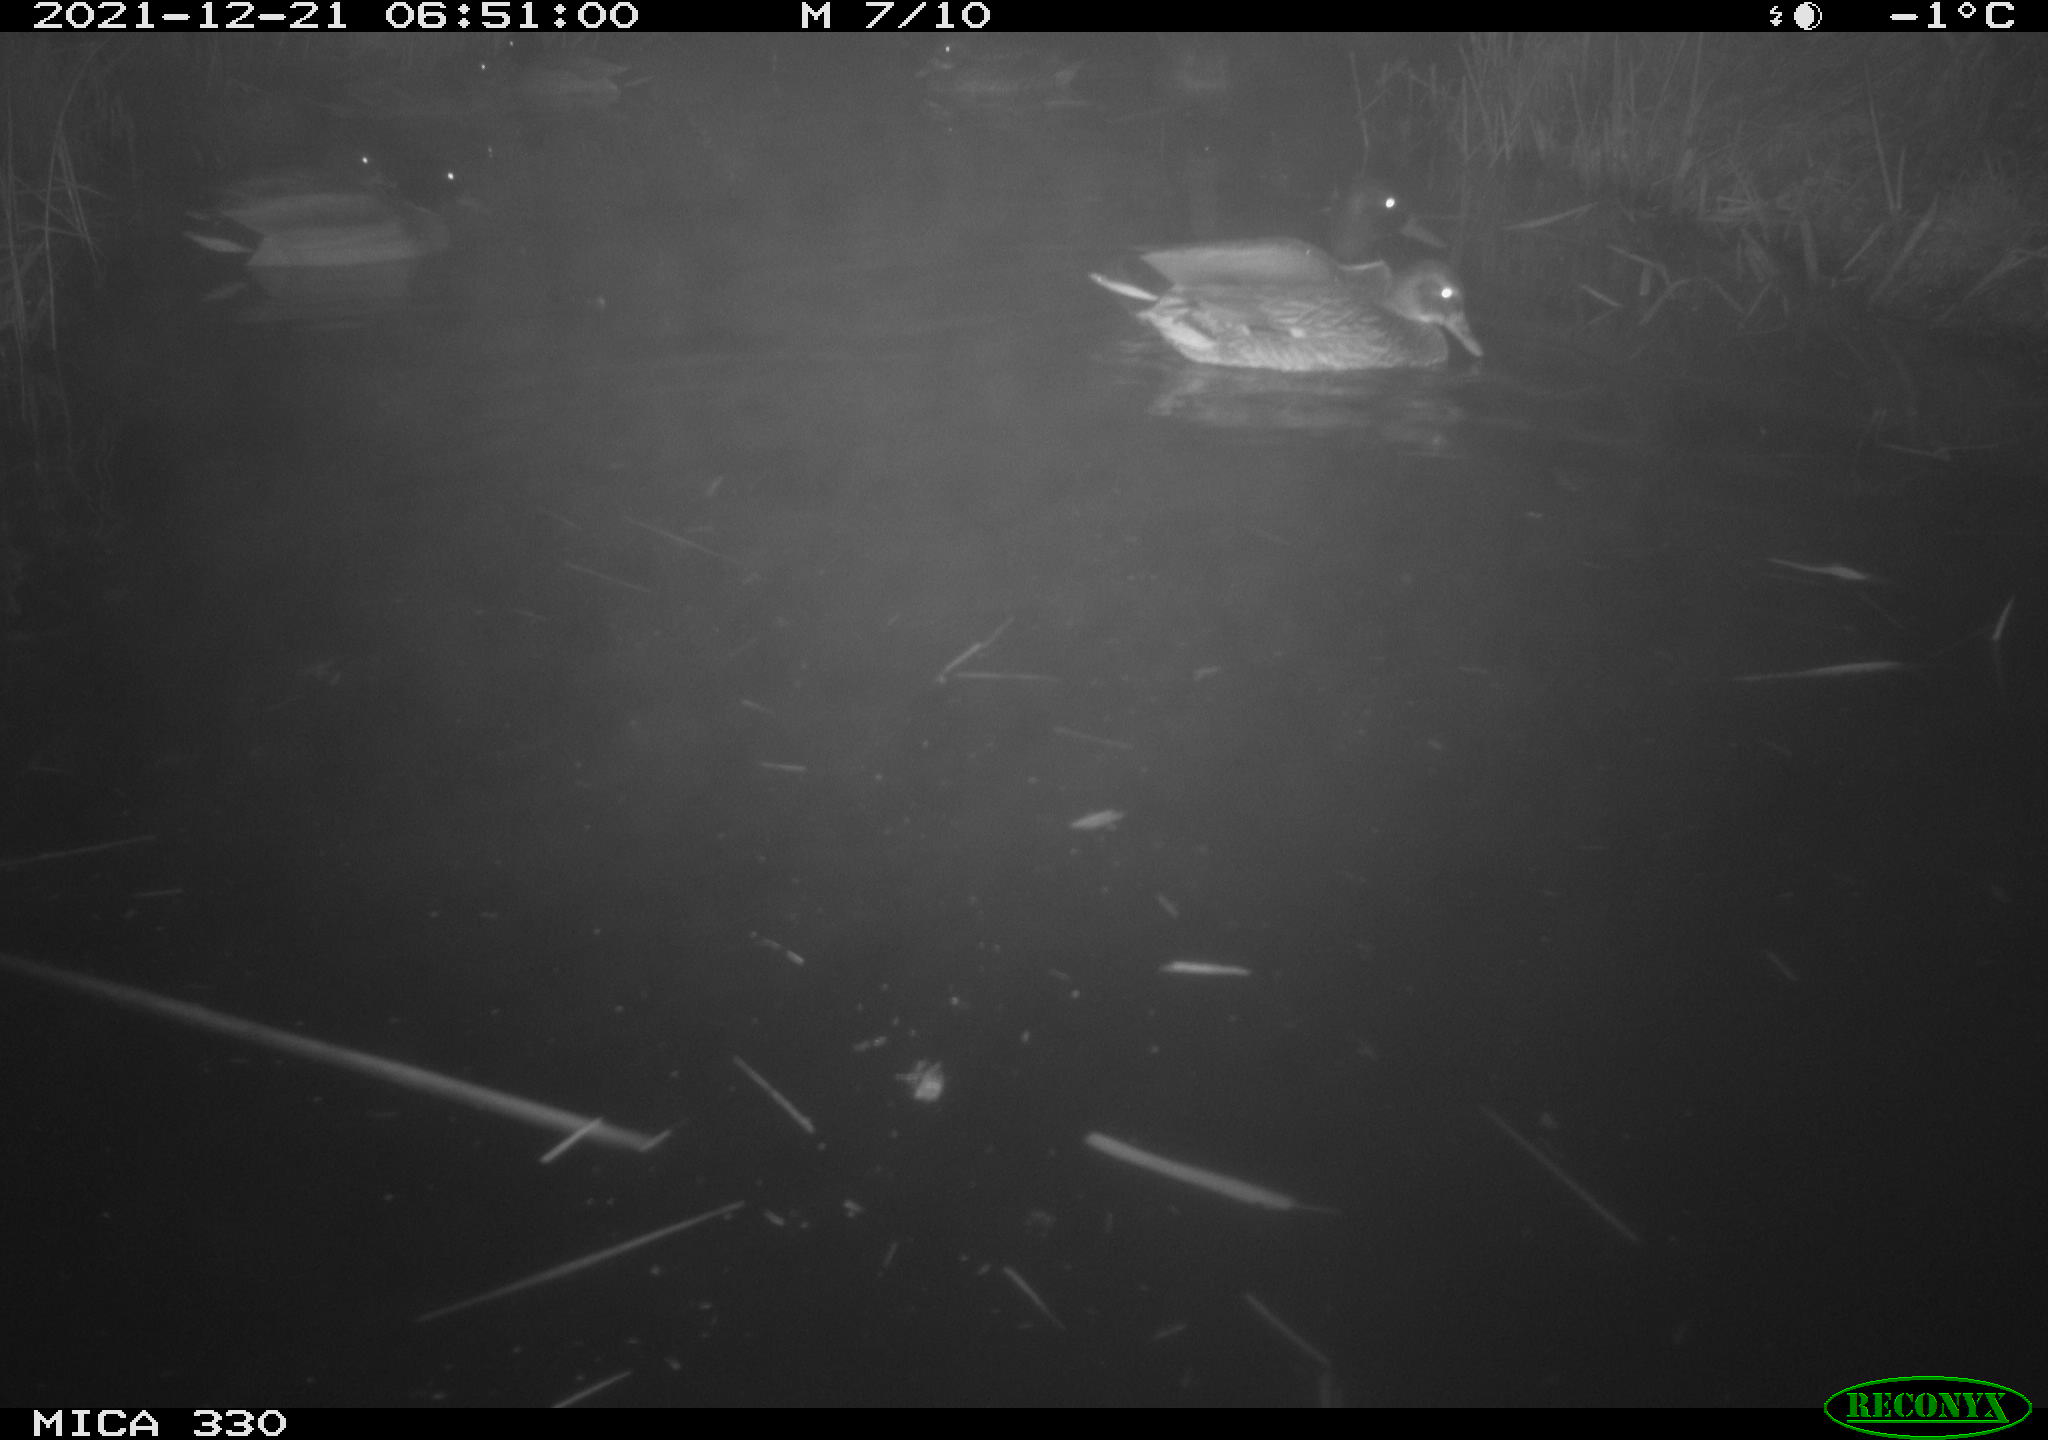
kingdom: Animalia
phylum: Chordata
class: Aves
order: Anseriformes
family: Anatidae
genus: Anas
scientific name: Anas platyrhynchos
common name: Mallard
